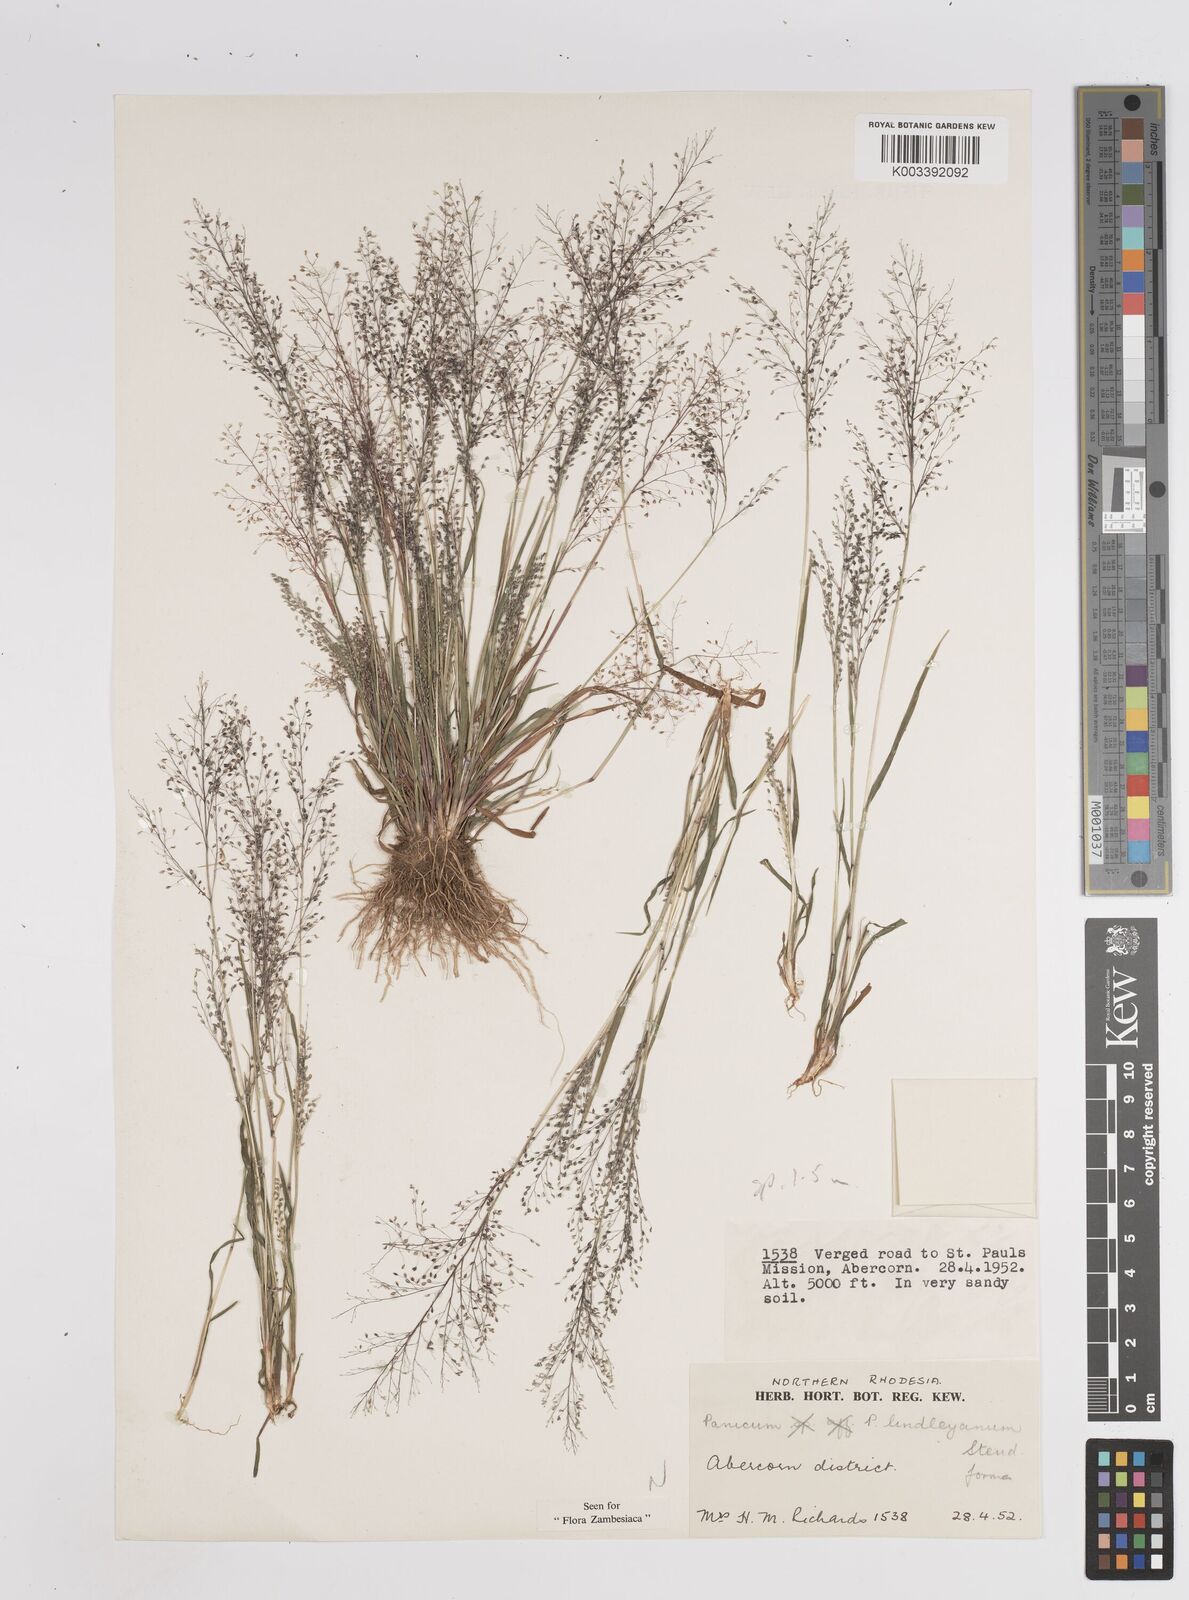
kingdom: Plantae
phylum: Tracheophyta
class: Liliopsida
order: Poales
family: Poaceae
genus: Trichanthecium
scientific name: Trichanthecium tenellum
